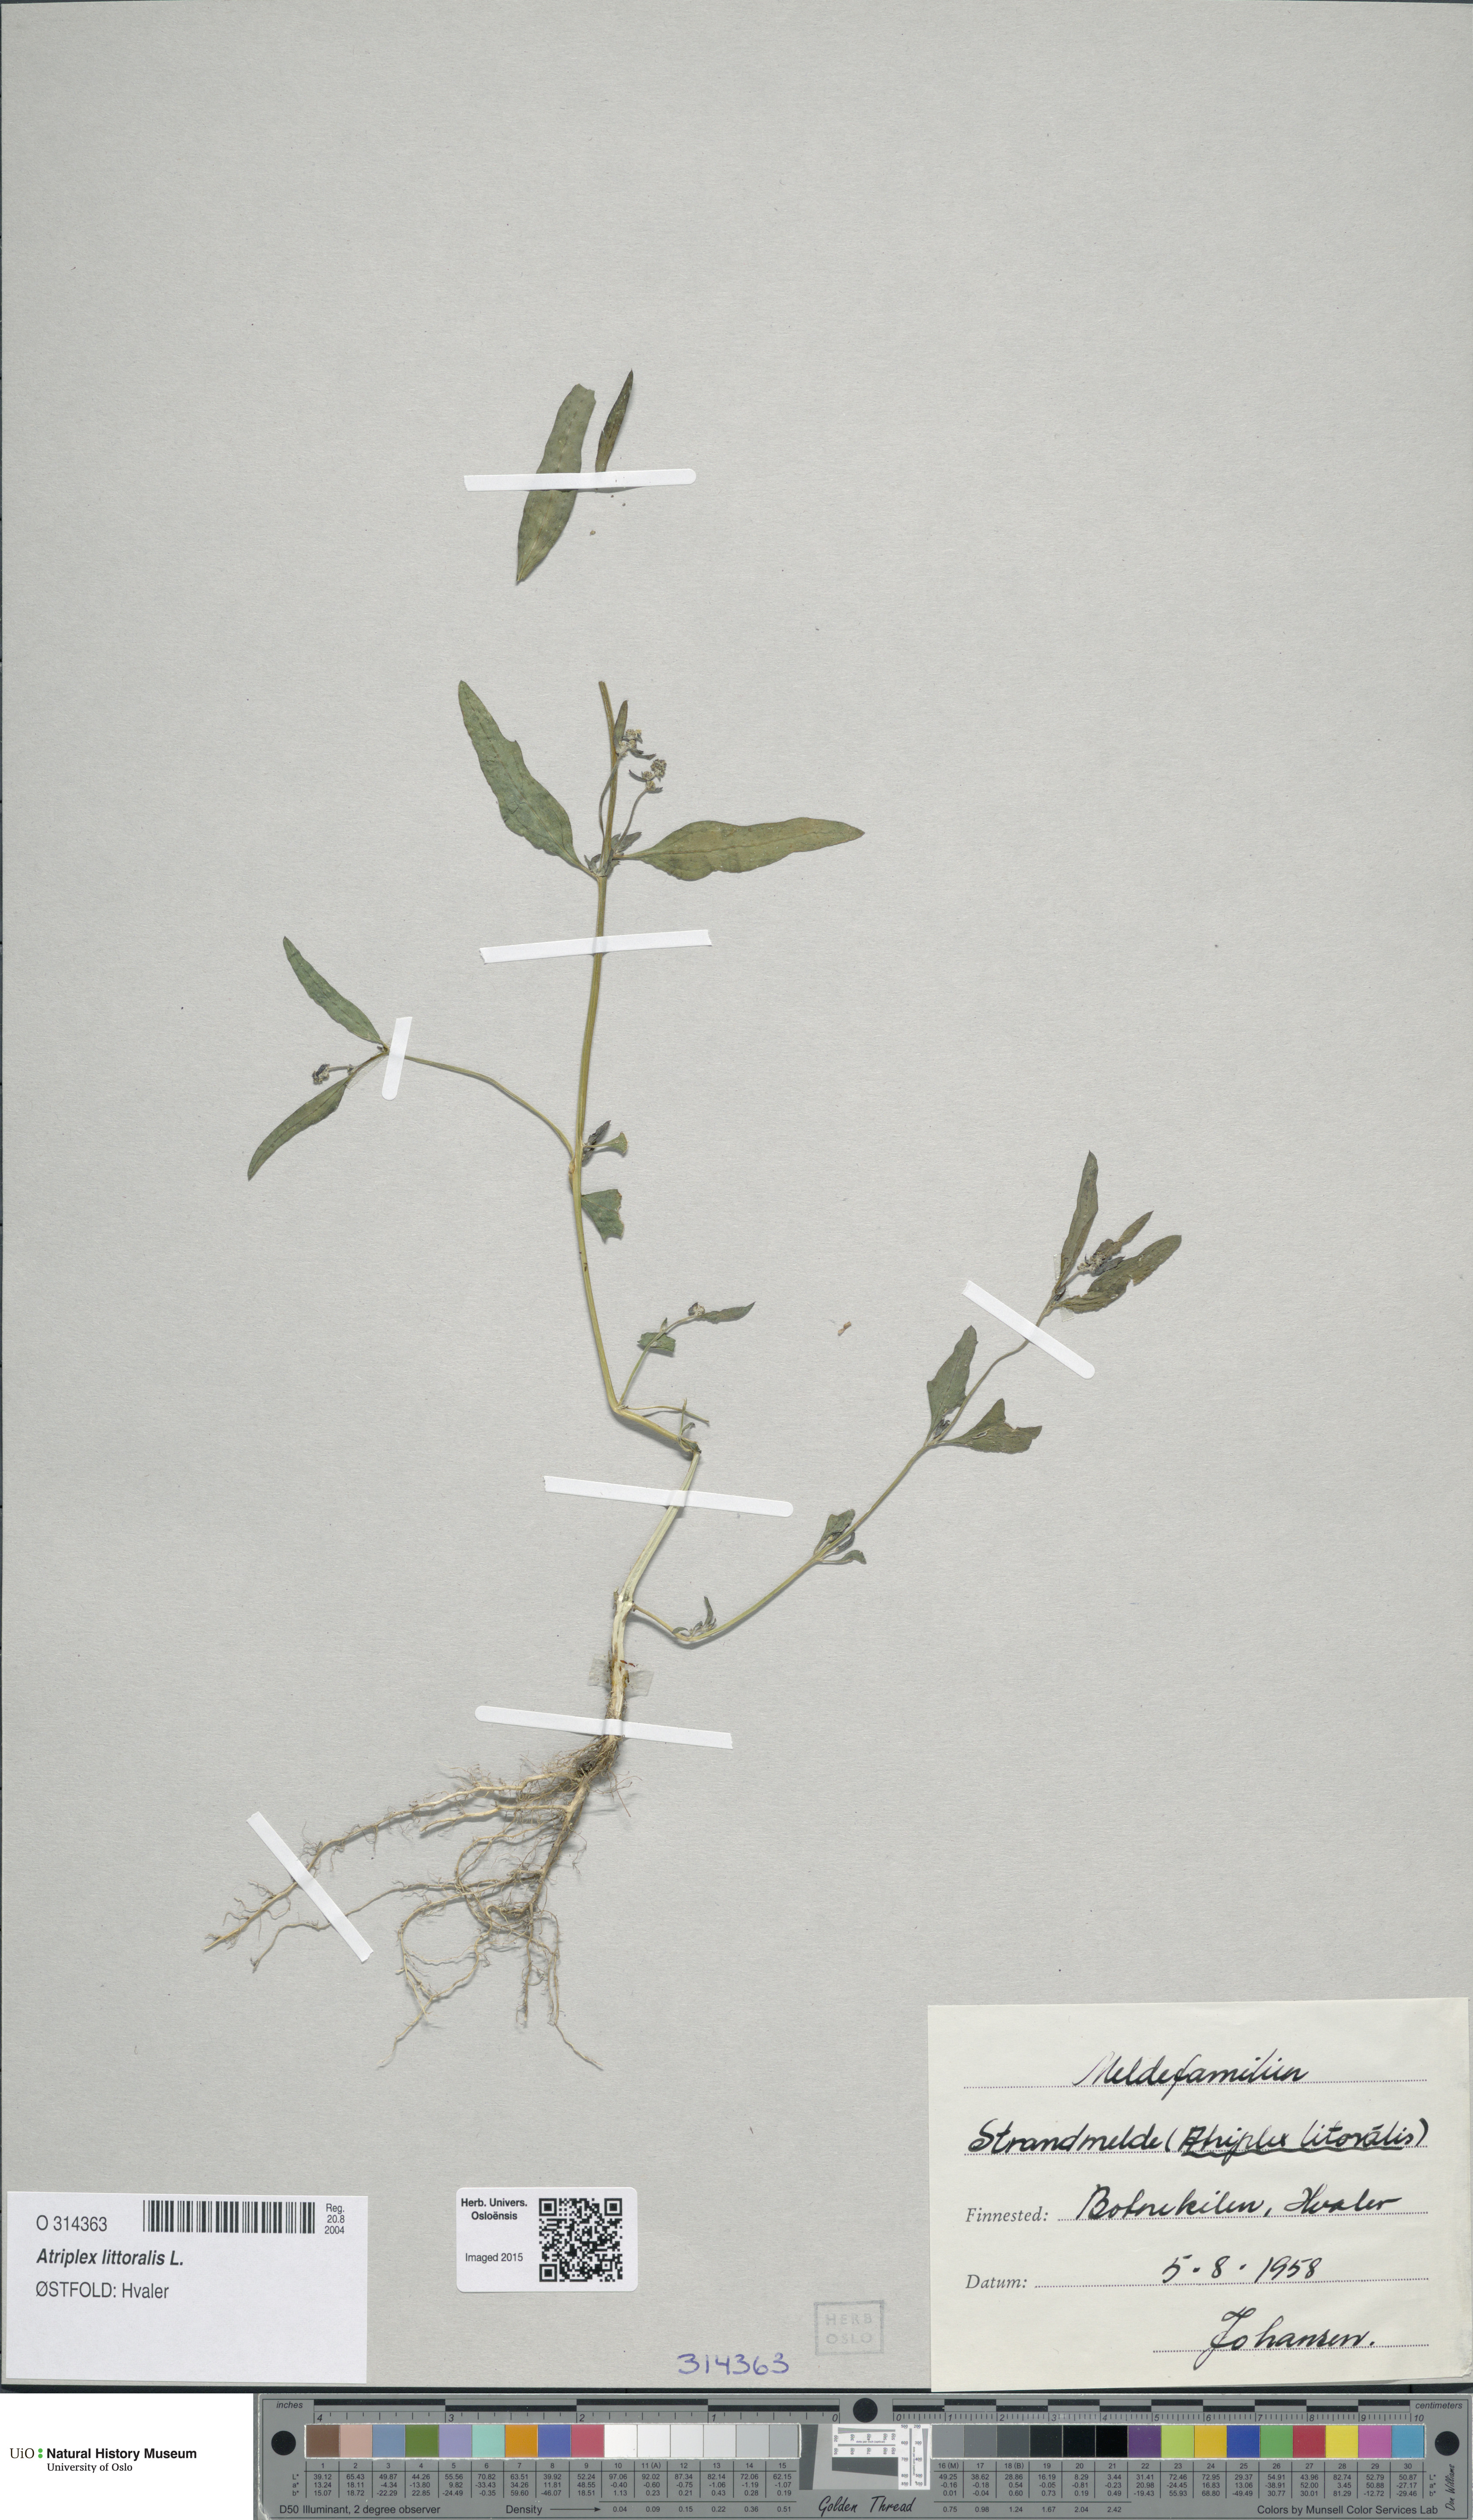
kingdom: Plantae
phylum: Tracheophyta
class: Magnoliopsida
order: Caryophyllales
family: Amaranthaceae
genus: Atriplex
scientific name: Atriplex littoralis
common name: Grass-leaved orache
